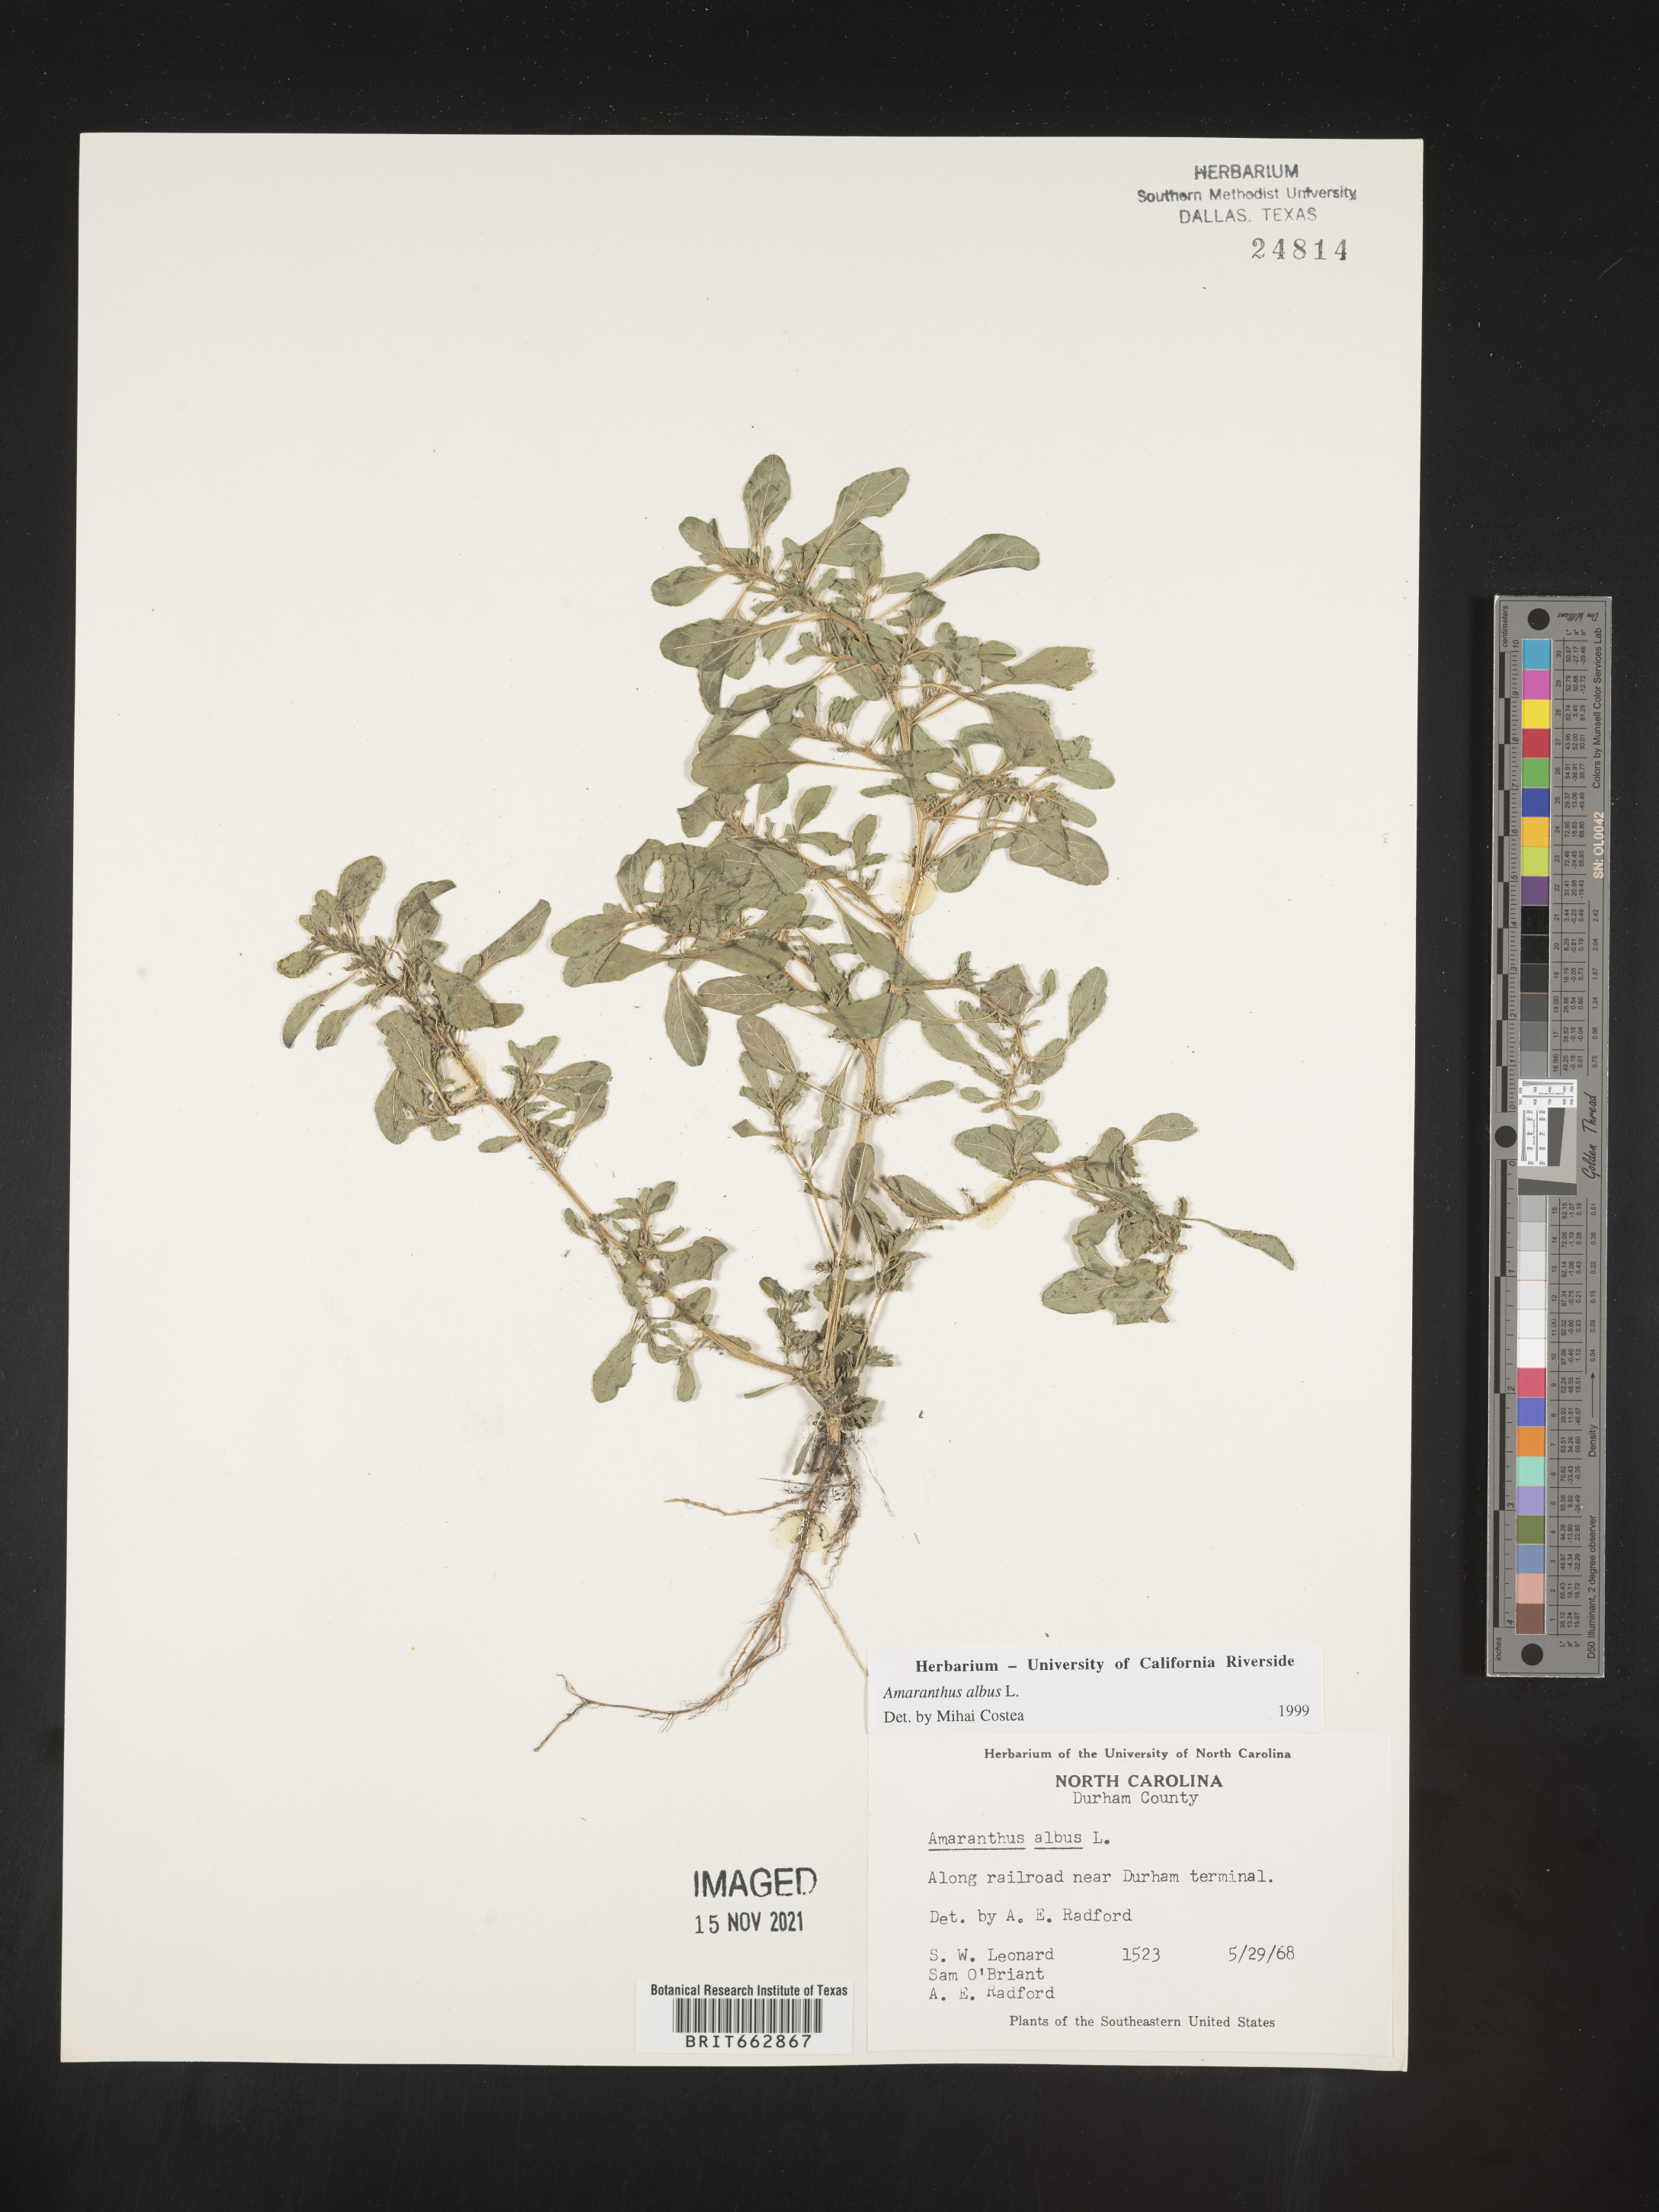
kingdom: Plantae
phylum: Tracheophyta
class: Magnoliopsida
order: Caryophyllales
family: Amaranthaceae
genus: Amaranthus
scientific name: Amaranthus albus
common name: White pigweed
